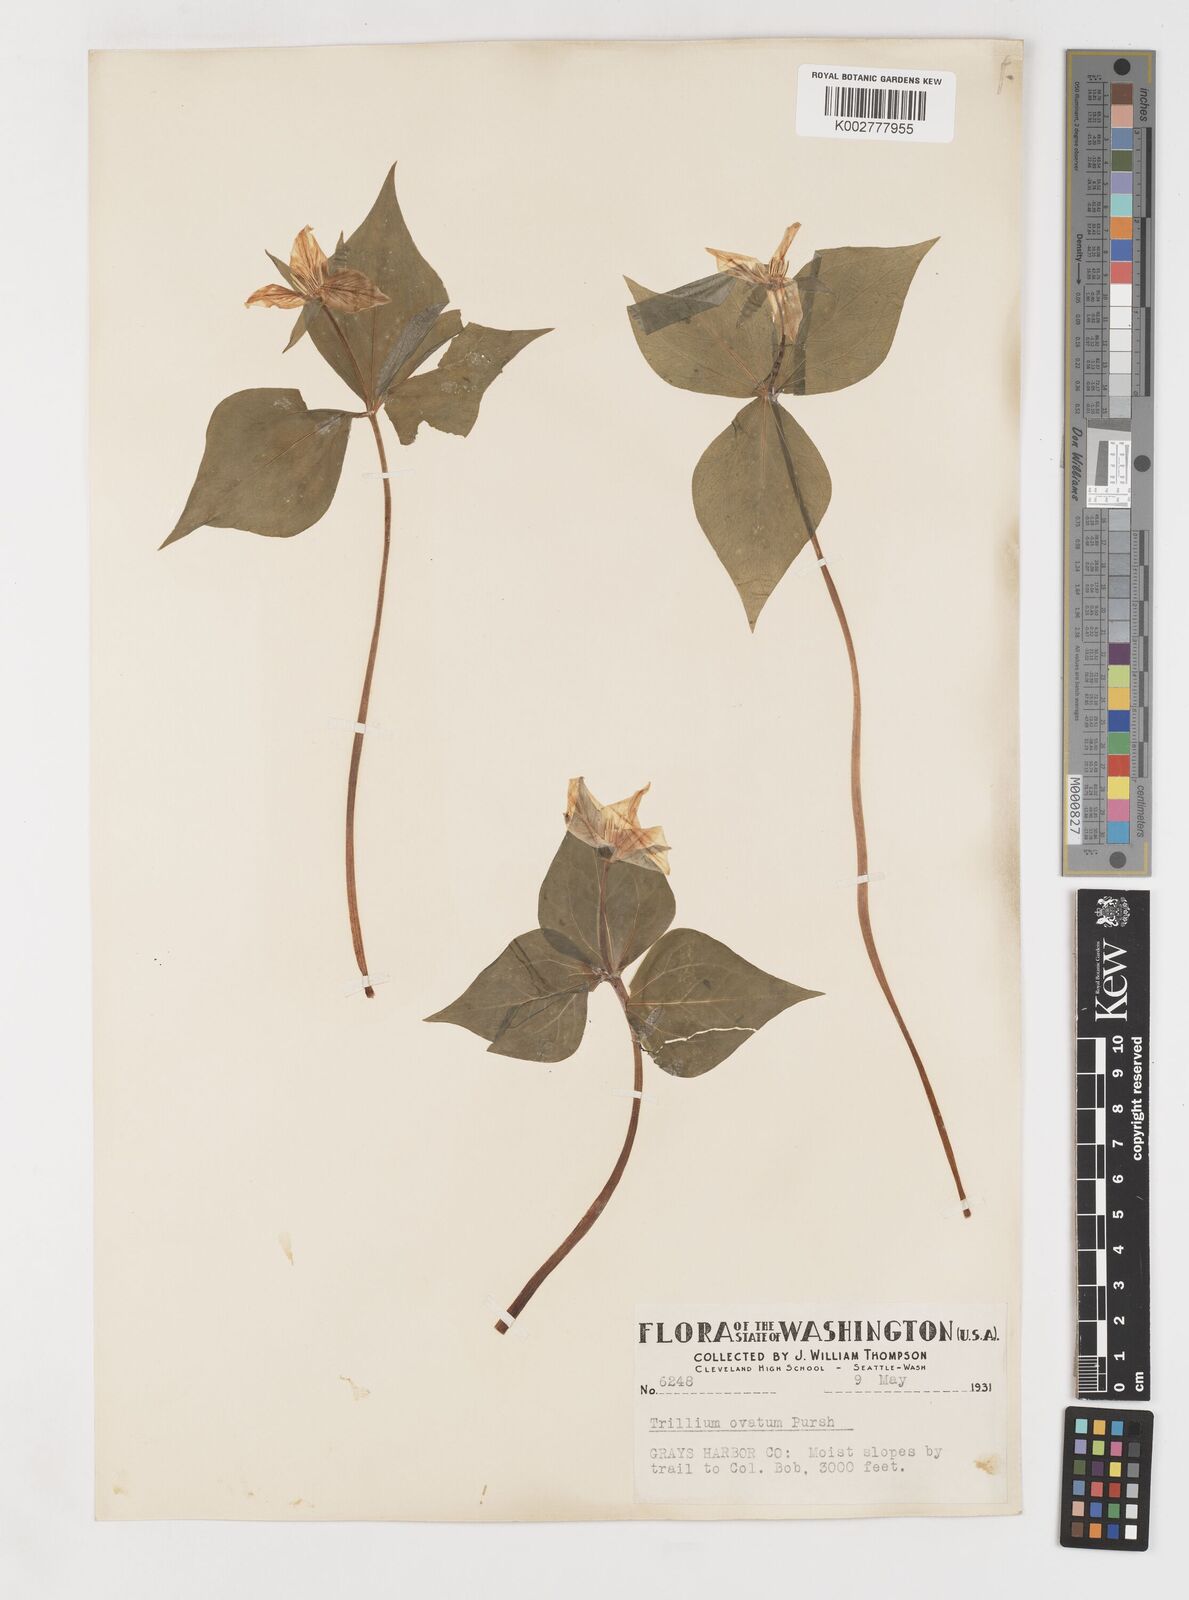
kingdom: Plantae
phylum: Tracheophyta
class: Liliopsida
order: Liliales
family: Melanthiaceae
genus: Trillium
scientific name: Trillium ovatum
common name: Pacific trillium
